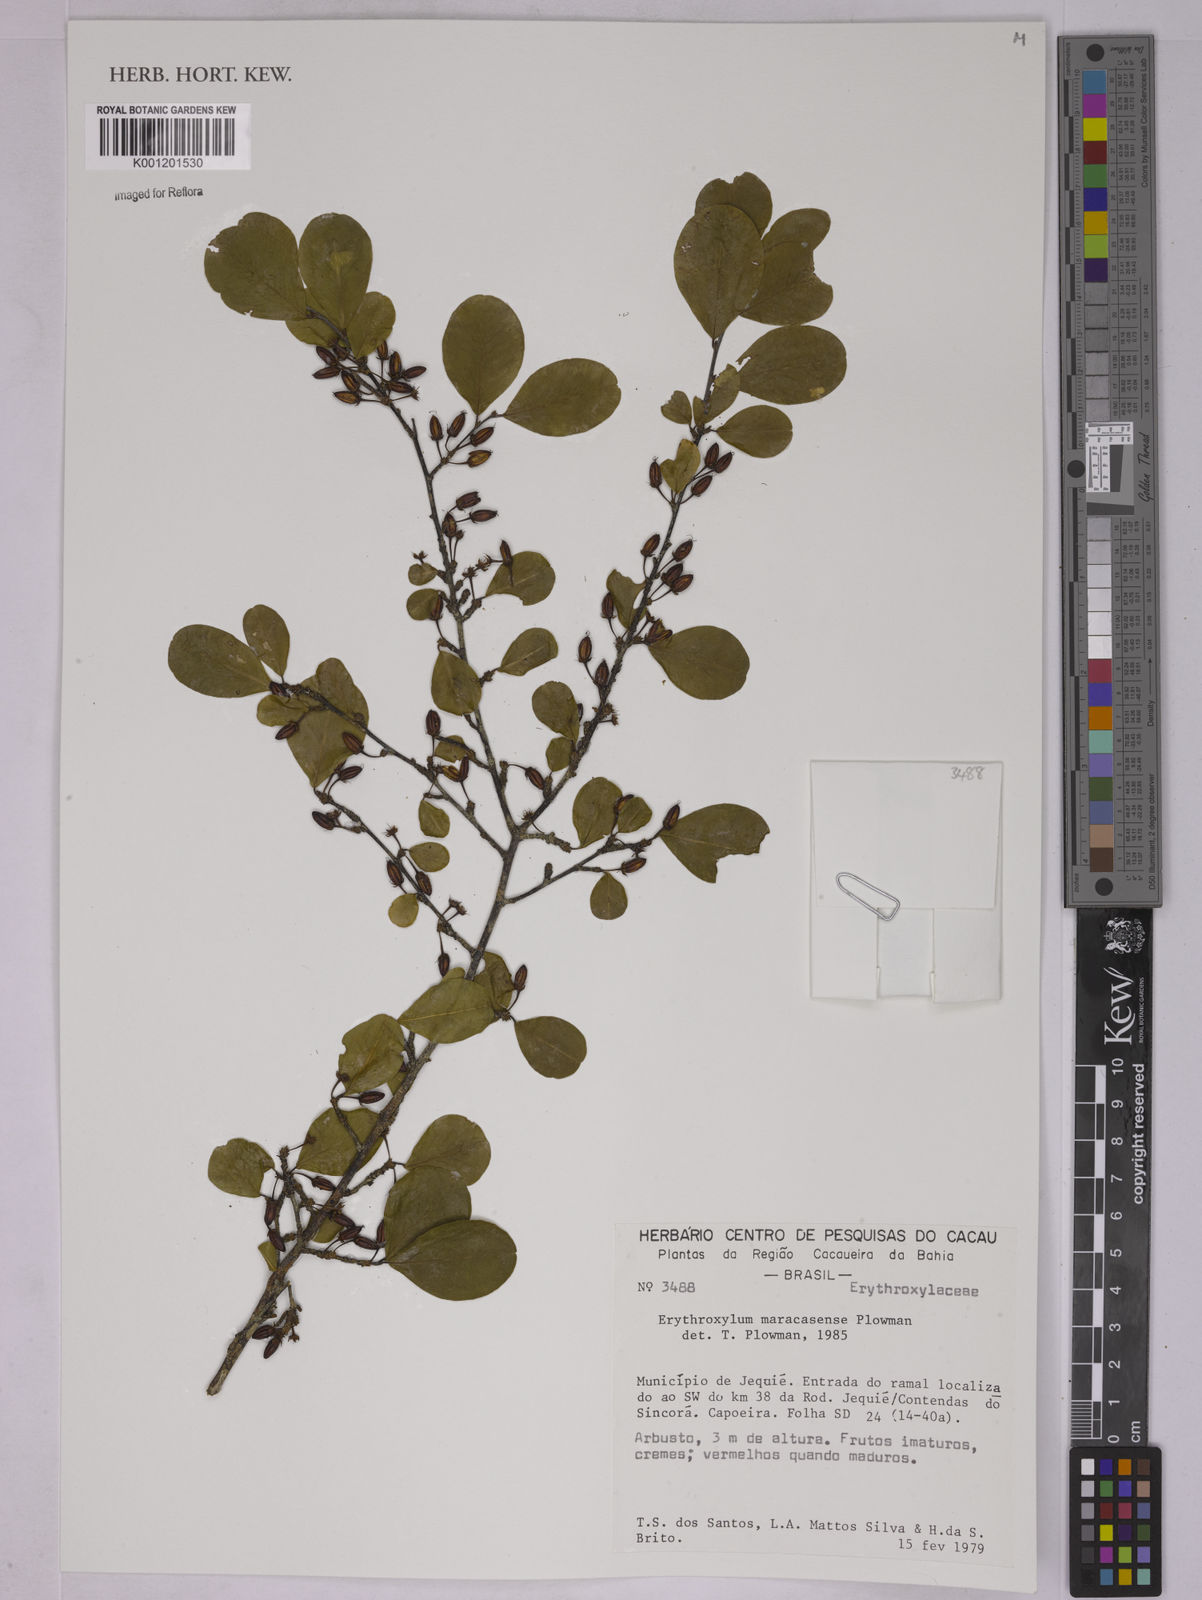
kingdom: Plantae
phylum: Tracheophyta
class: Magnoliopsida
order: Malpighiales
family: Erythroxylaceae
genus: Erythroxylum
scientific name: Erythroxylum maracasense
